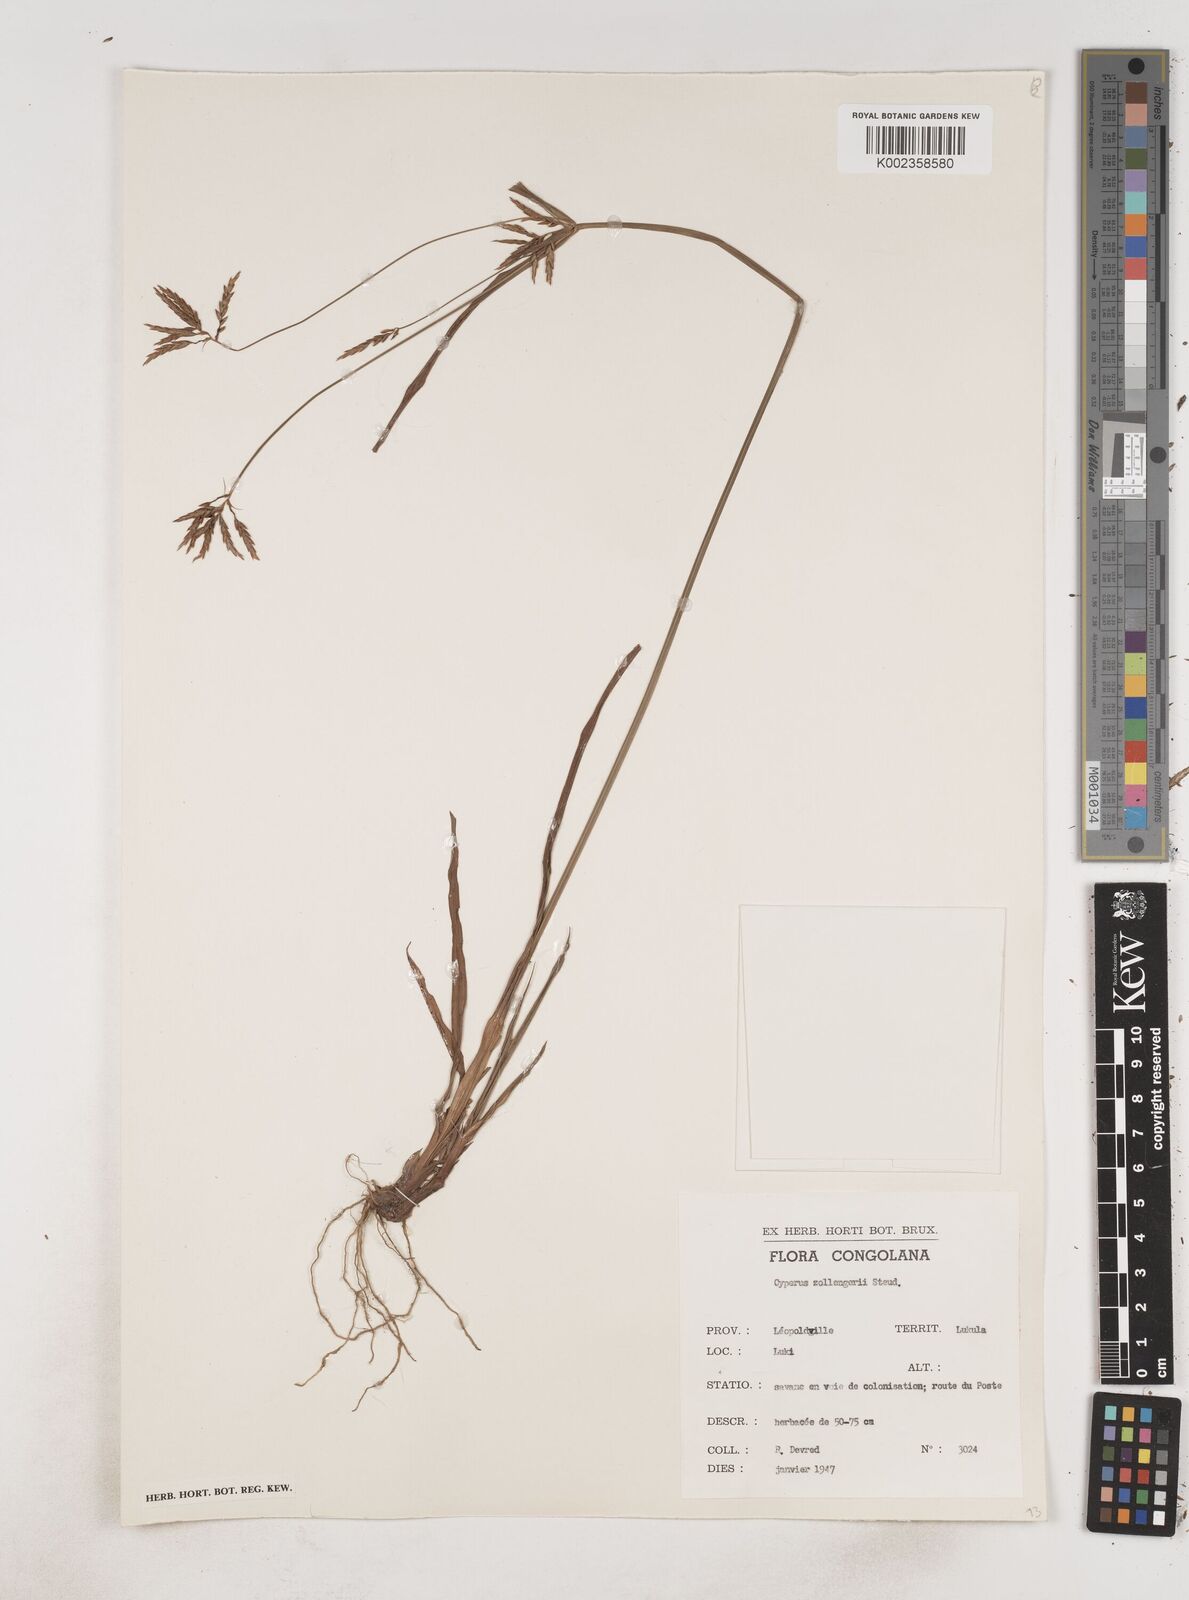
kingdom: Plantae
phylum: Tracheophyta
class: Liliopsida
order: Poales
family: Cyperaceae
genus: Cyperus
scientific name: Cyperus
